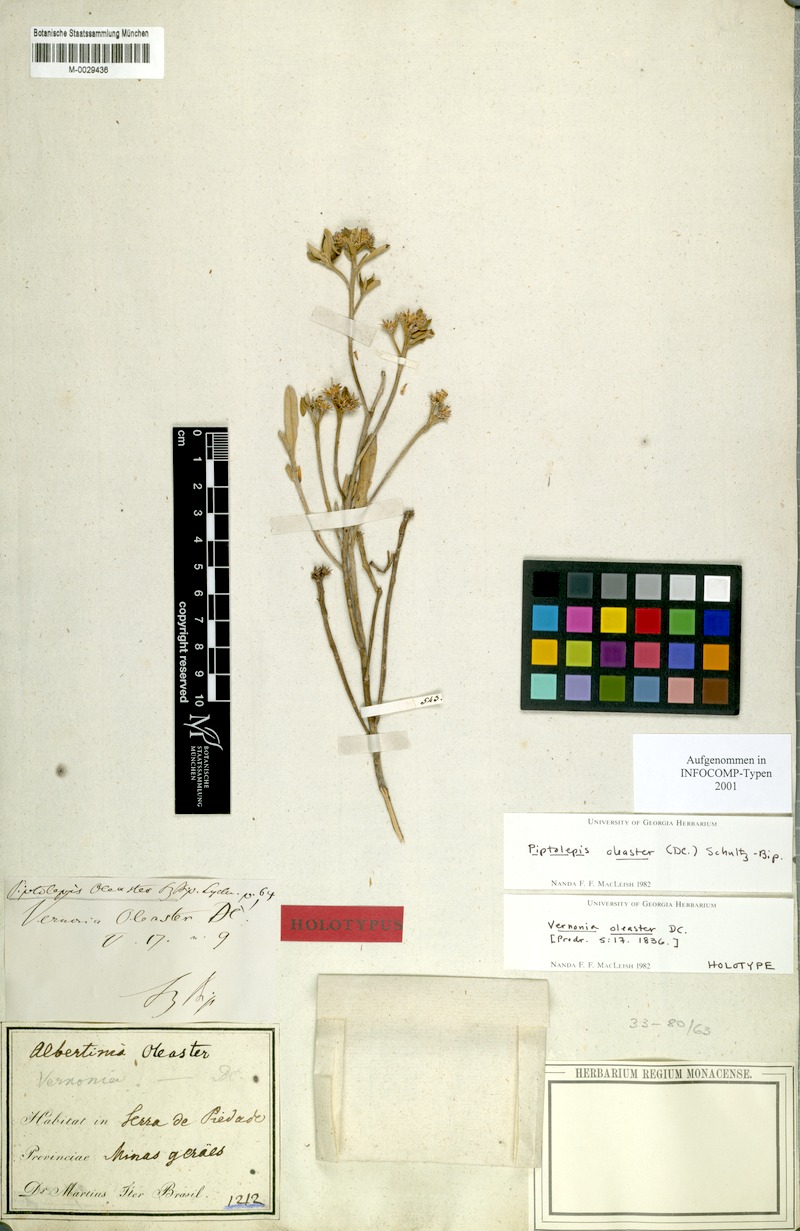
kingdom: Plantae
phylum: Tracheophyta
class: Magnoliopsida
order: Asterales
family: Asteraceae
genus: Piptolepis
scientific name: Piptolepis oleaster
